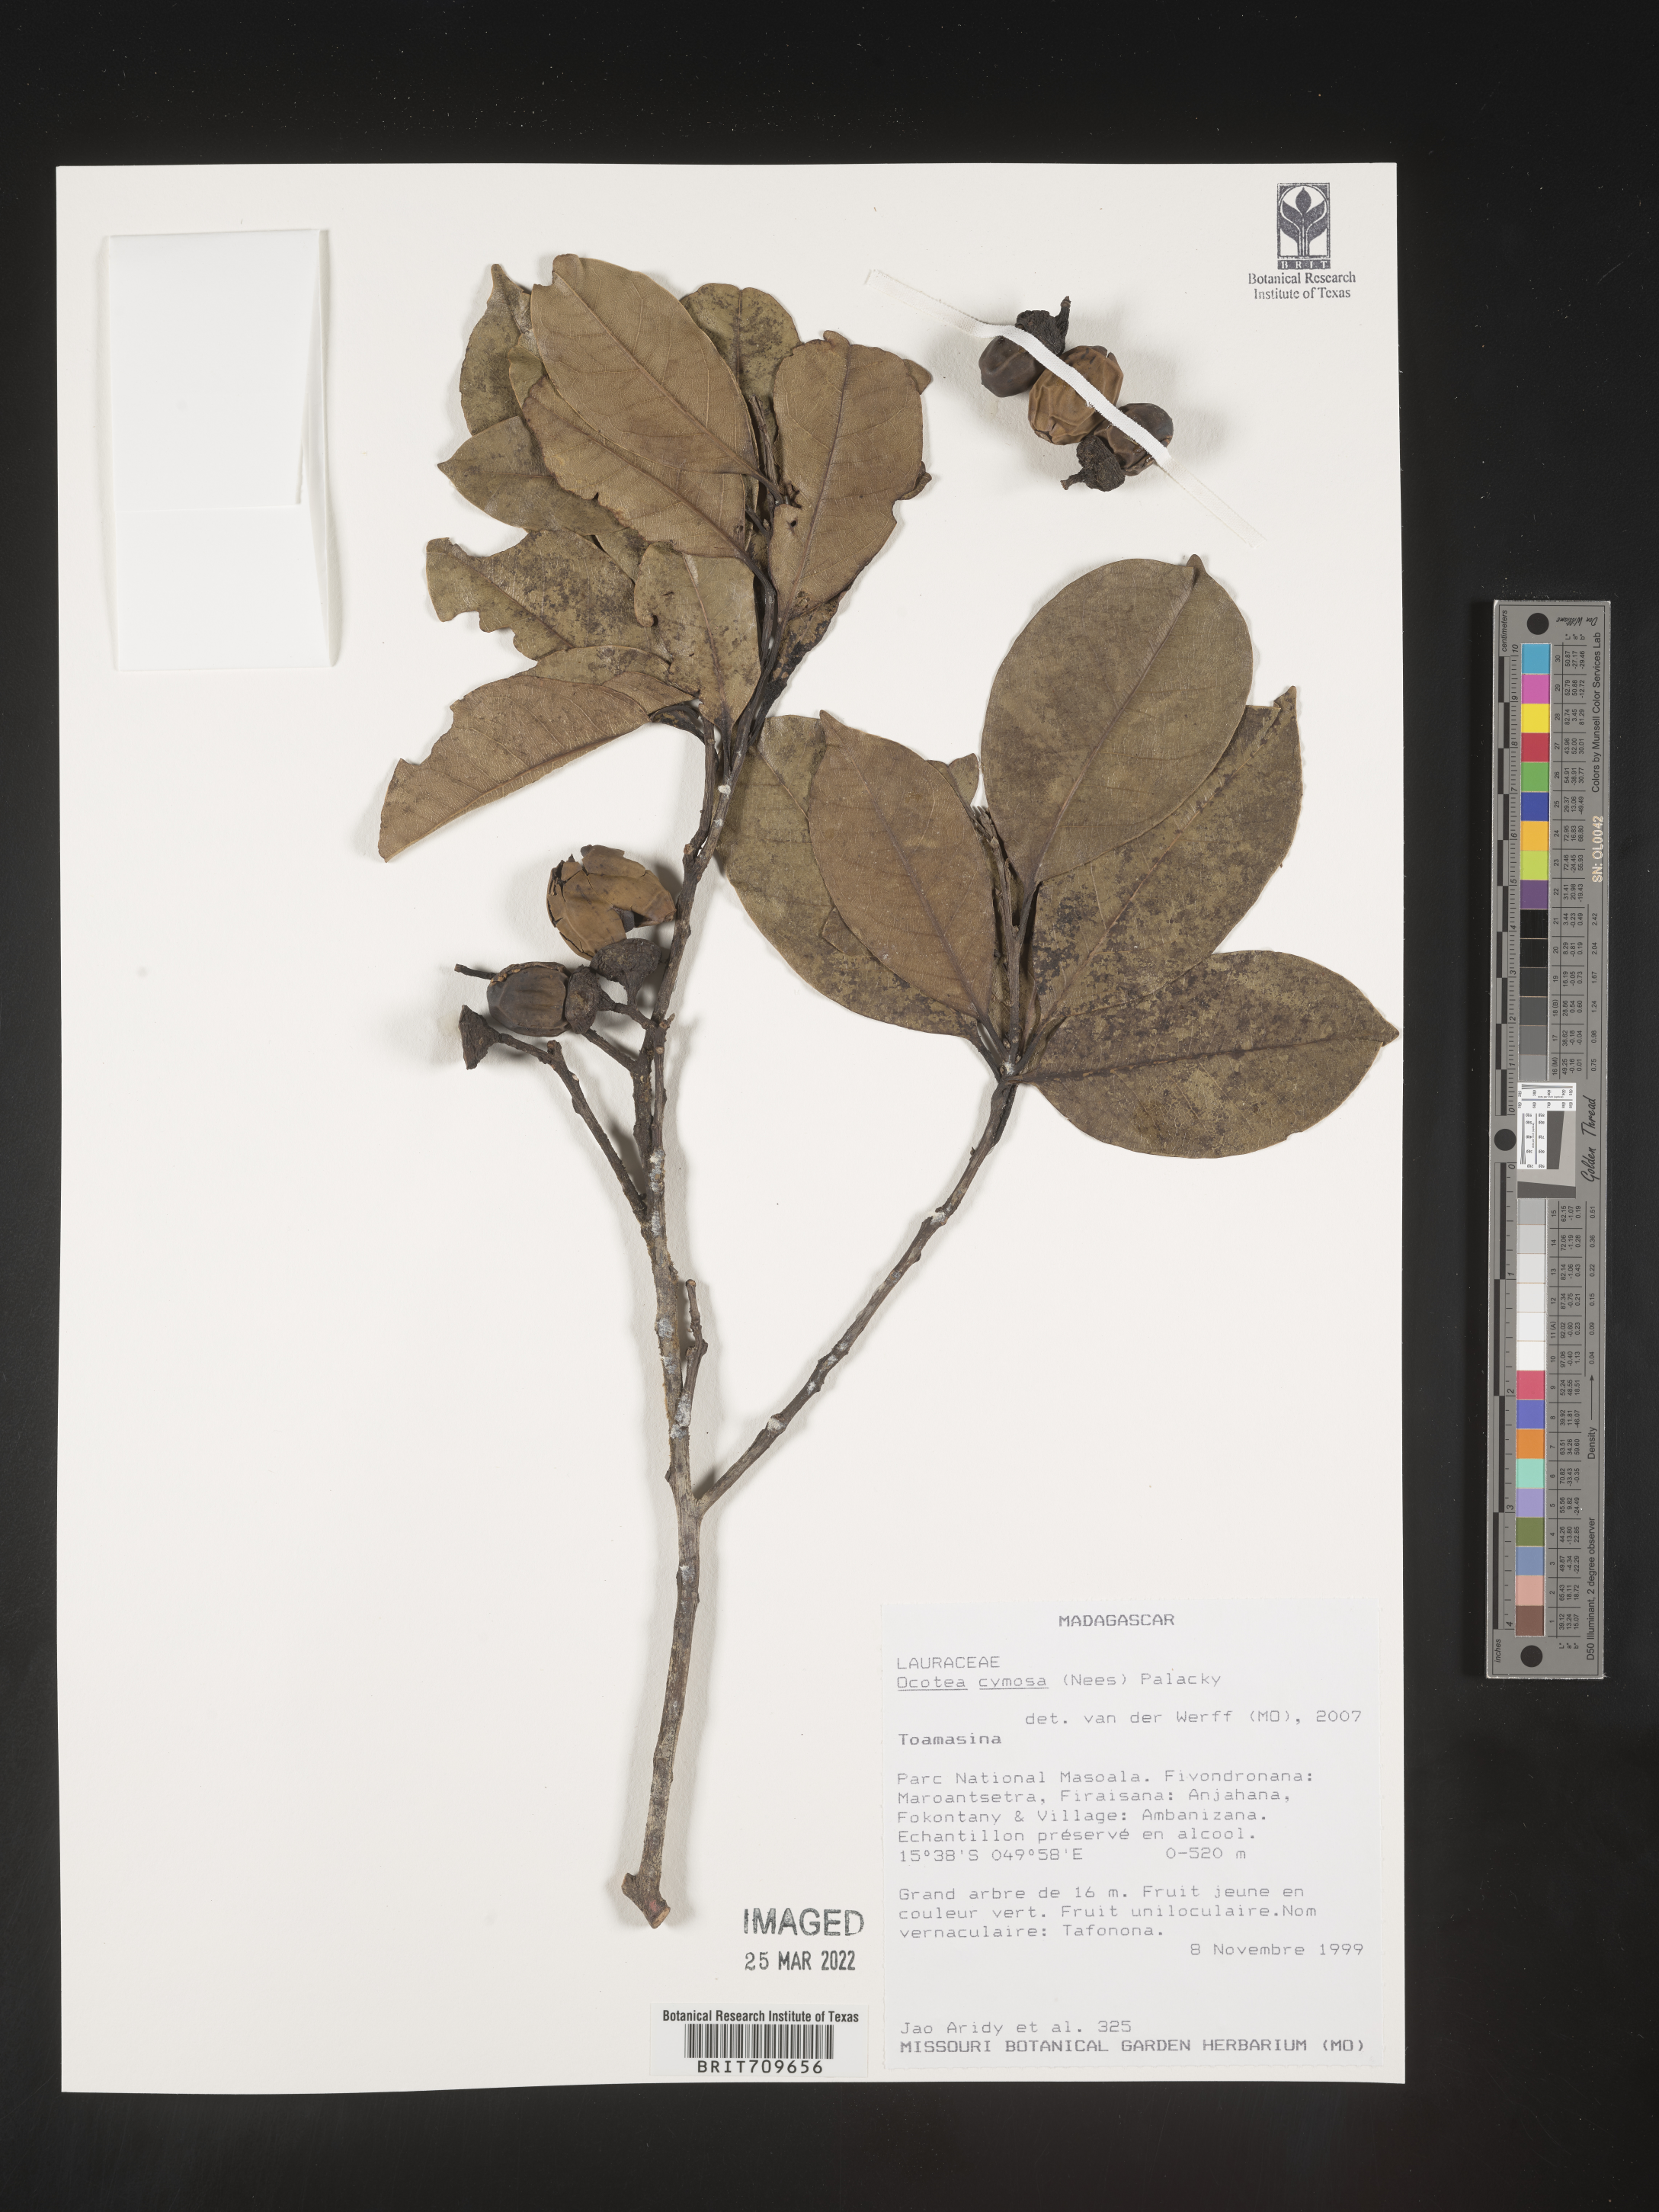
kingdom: Plantae
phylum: Tracheophyta
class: Magnoliopsida
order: Laurales
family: Lauraceae
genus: Ocotea
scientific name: Ocotea
